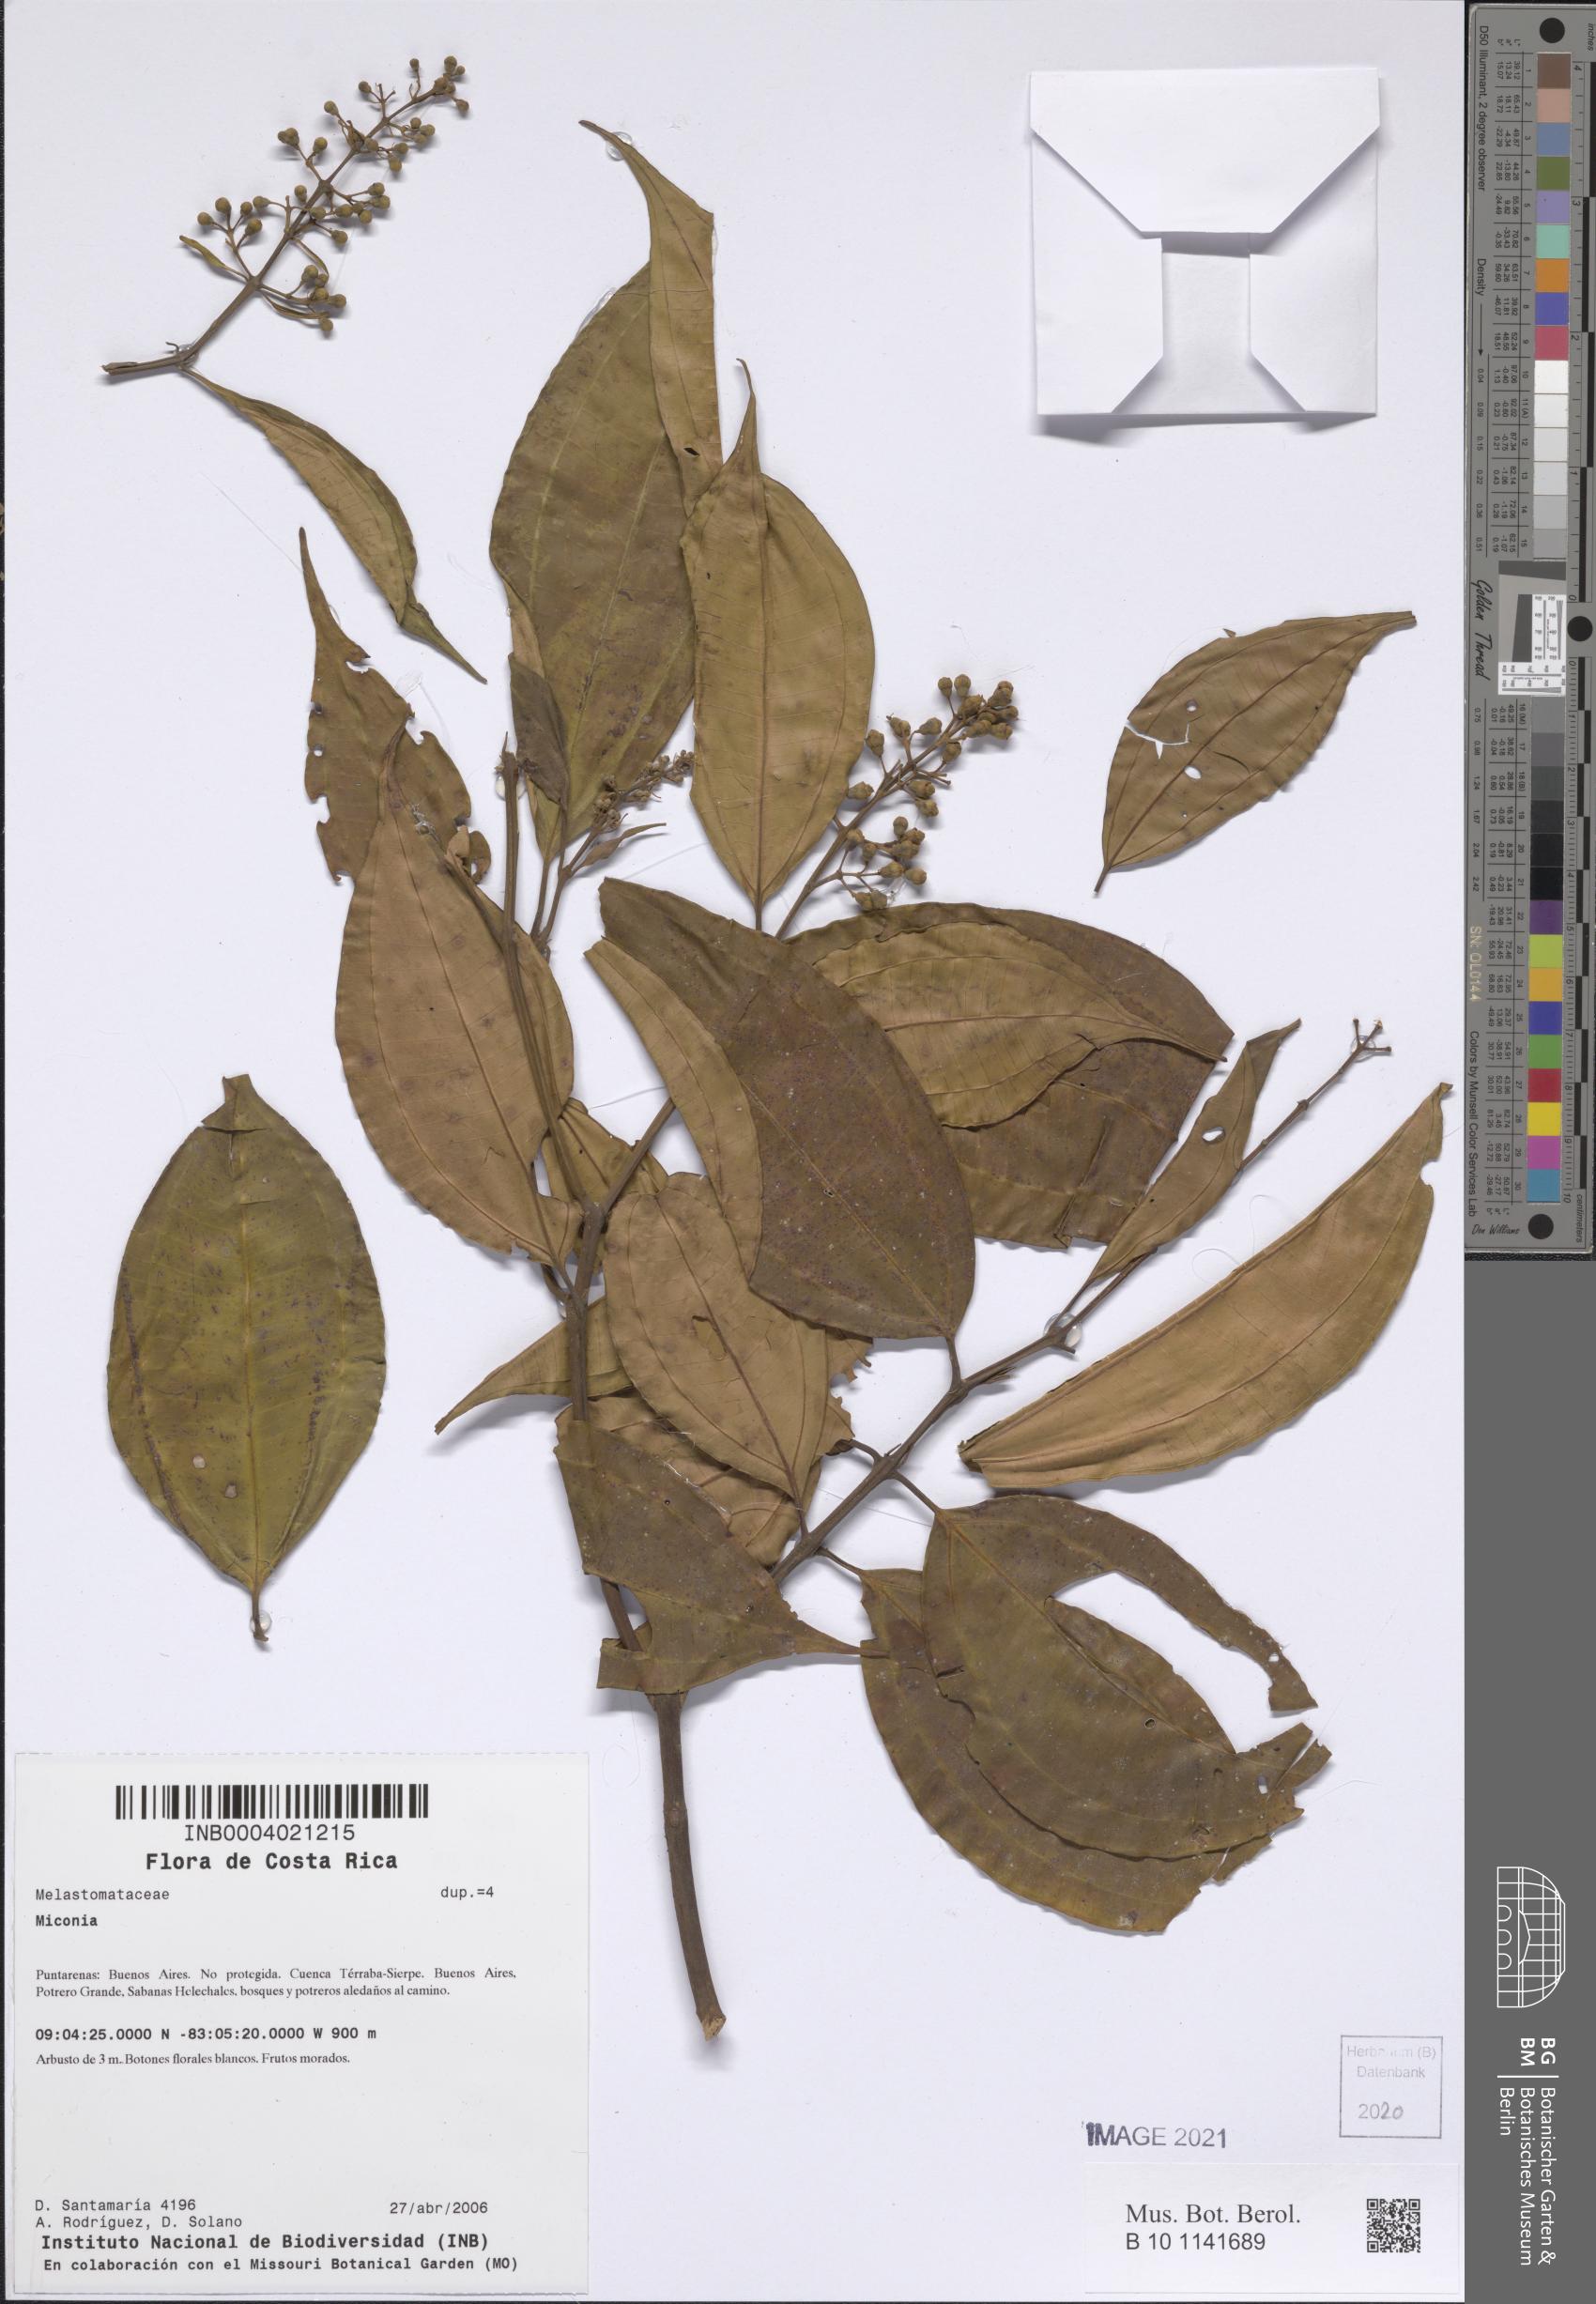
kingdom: Plantae
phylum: Tracheophyta
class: Magnoliopsida
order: Myrtales
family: Melastomataceae
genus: Miconia
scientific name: Miconia
